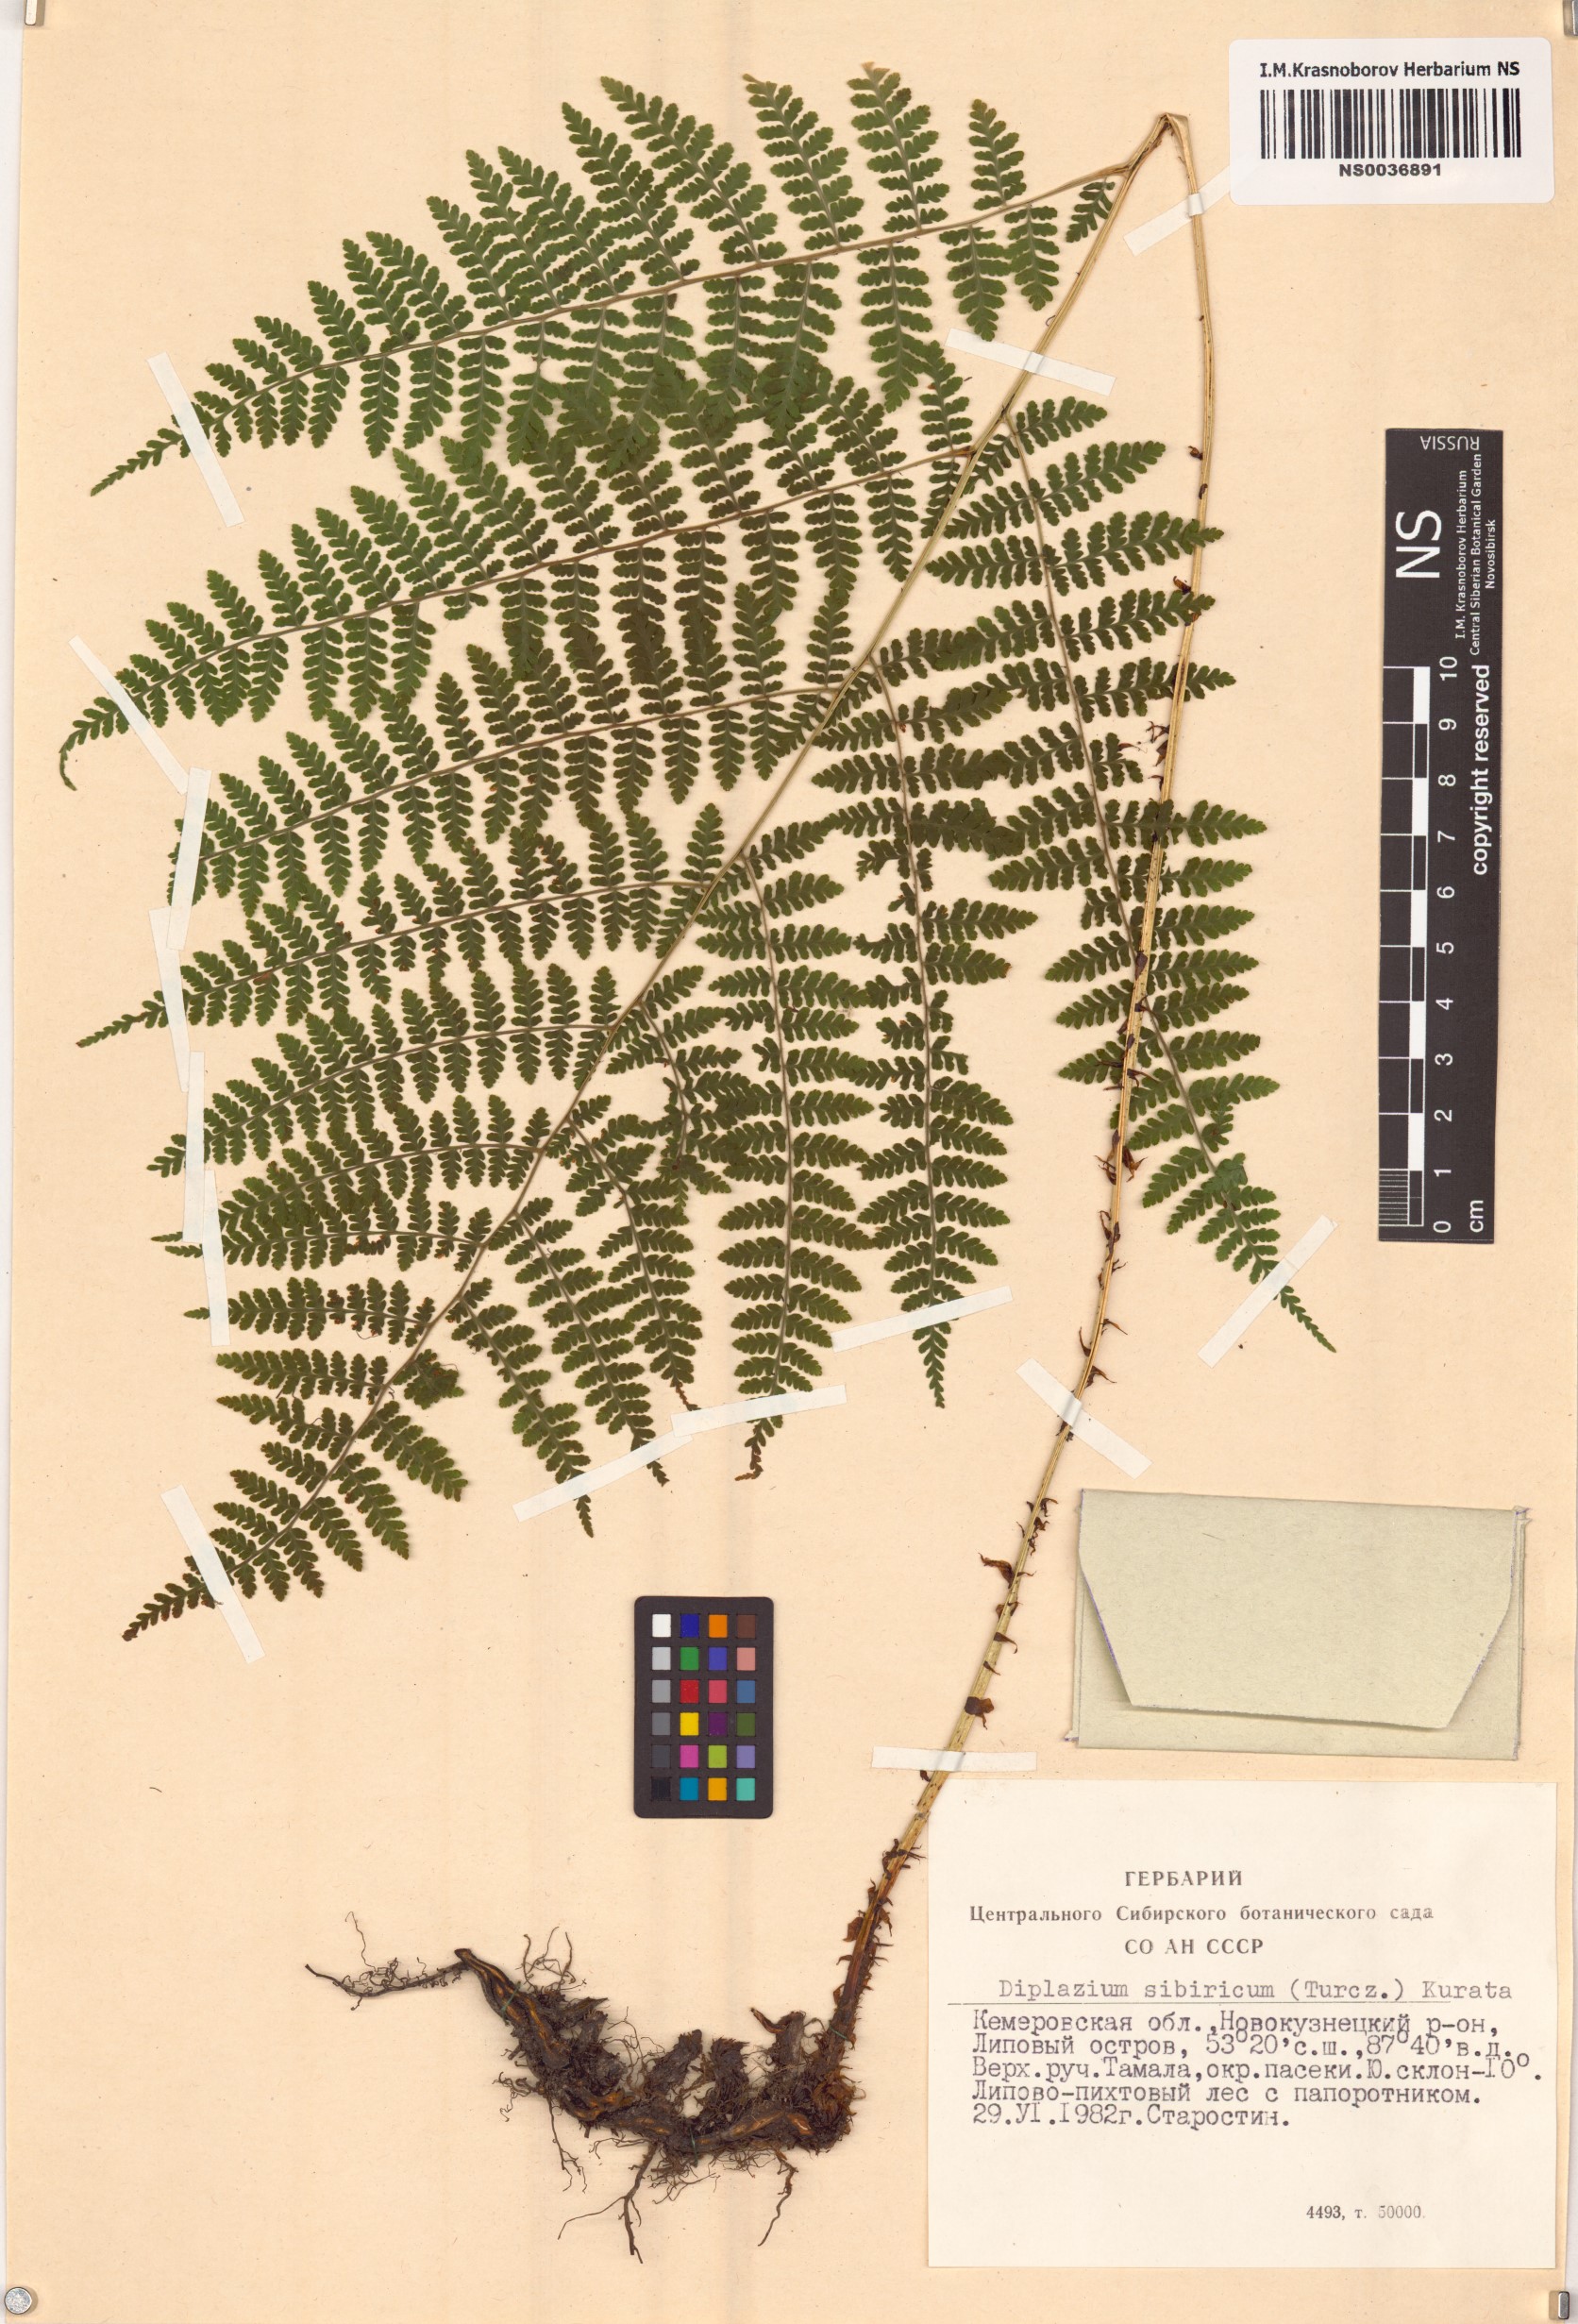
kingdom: Plantae
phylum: Tracheophyta
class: Polypodiopsida
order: Polypodiales
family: Athyriaceae
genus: Diplazium
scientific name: Diplazium sibiricum
